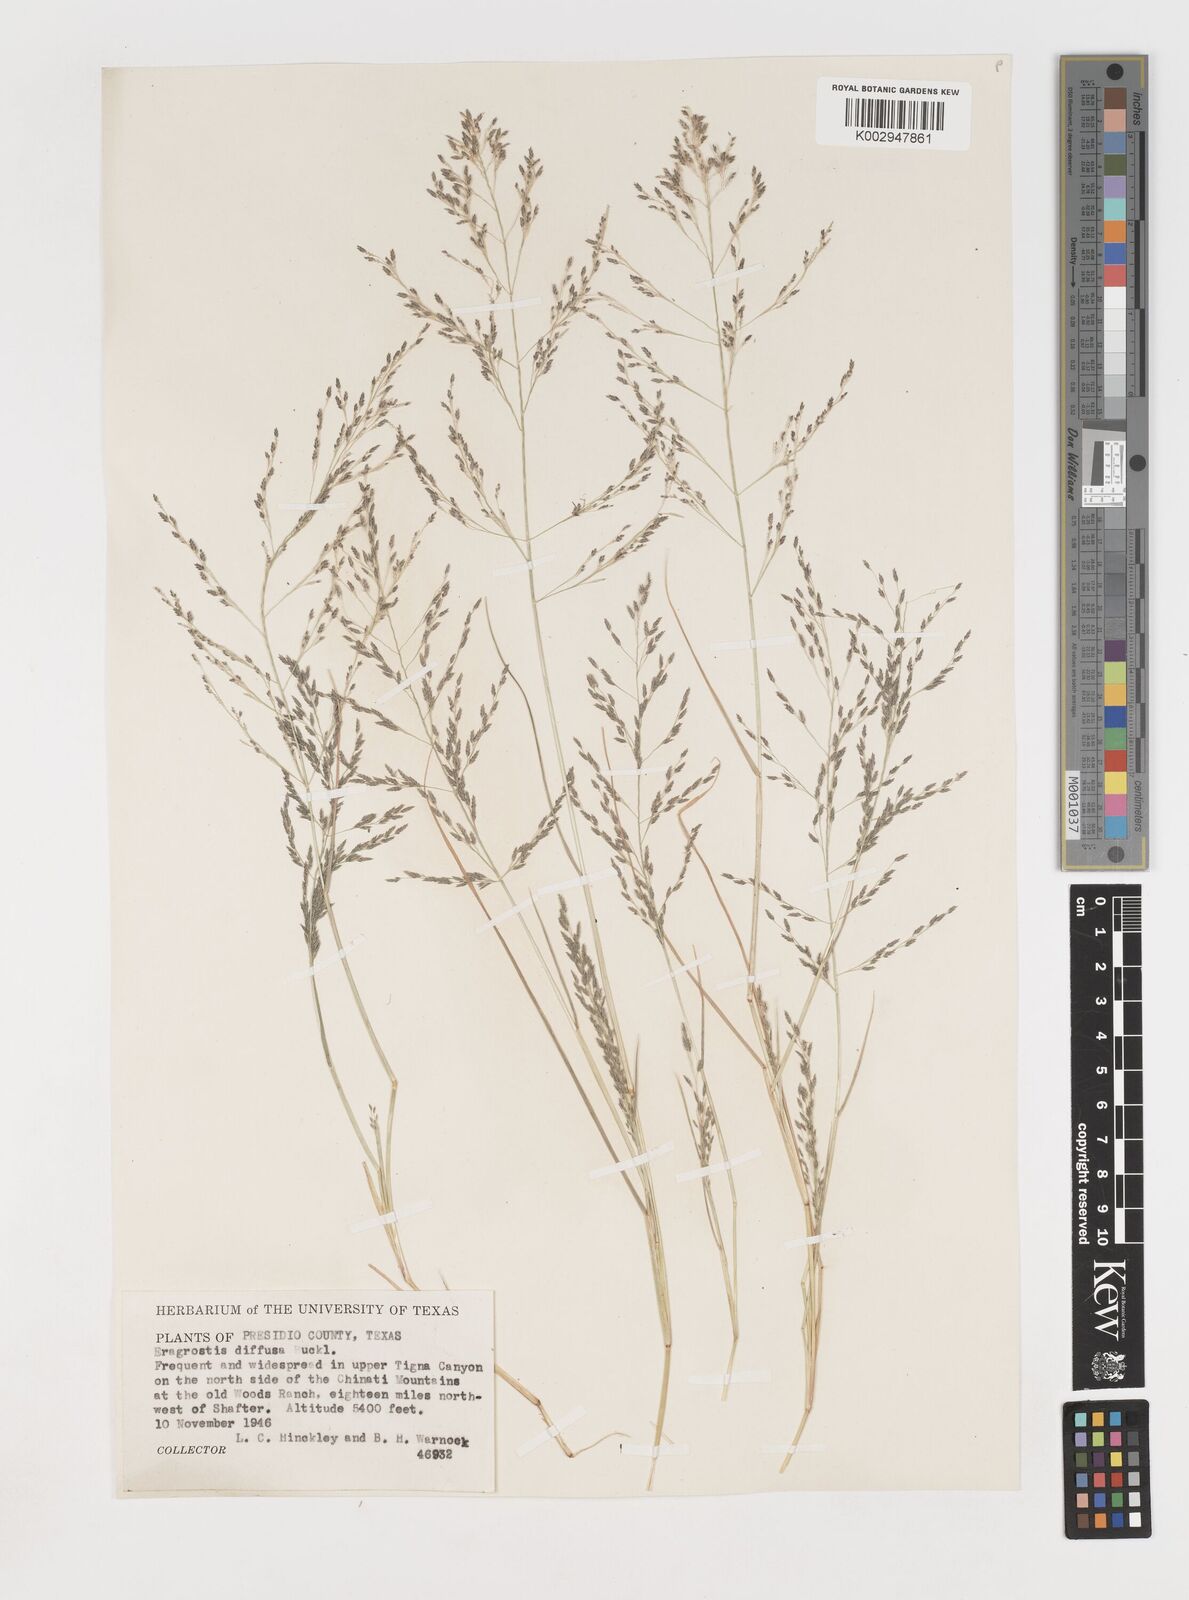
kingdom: Plantae
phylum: Tracheophyta
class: Liliopsida
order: Poales
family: Poaceae
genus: Eragrostis
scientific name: Eragrostis pectinacea
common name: Tufted lovegrass
